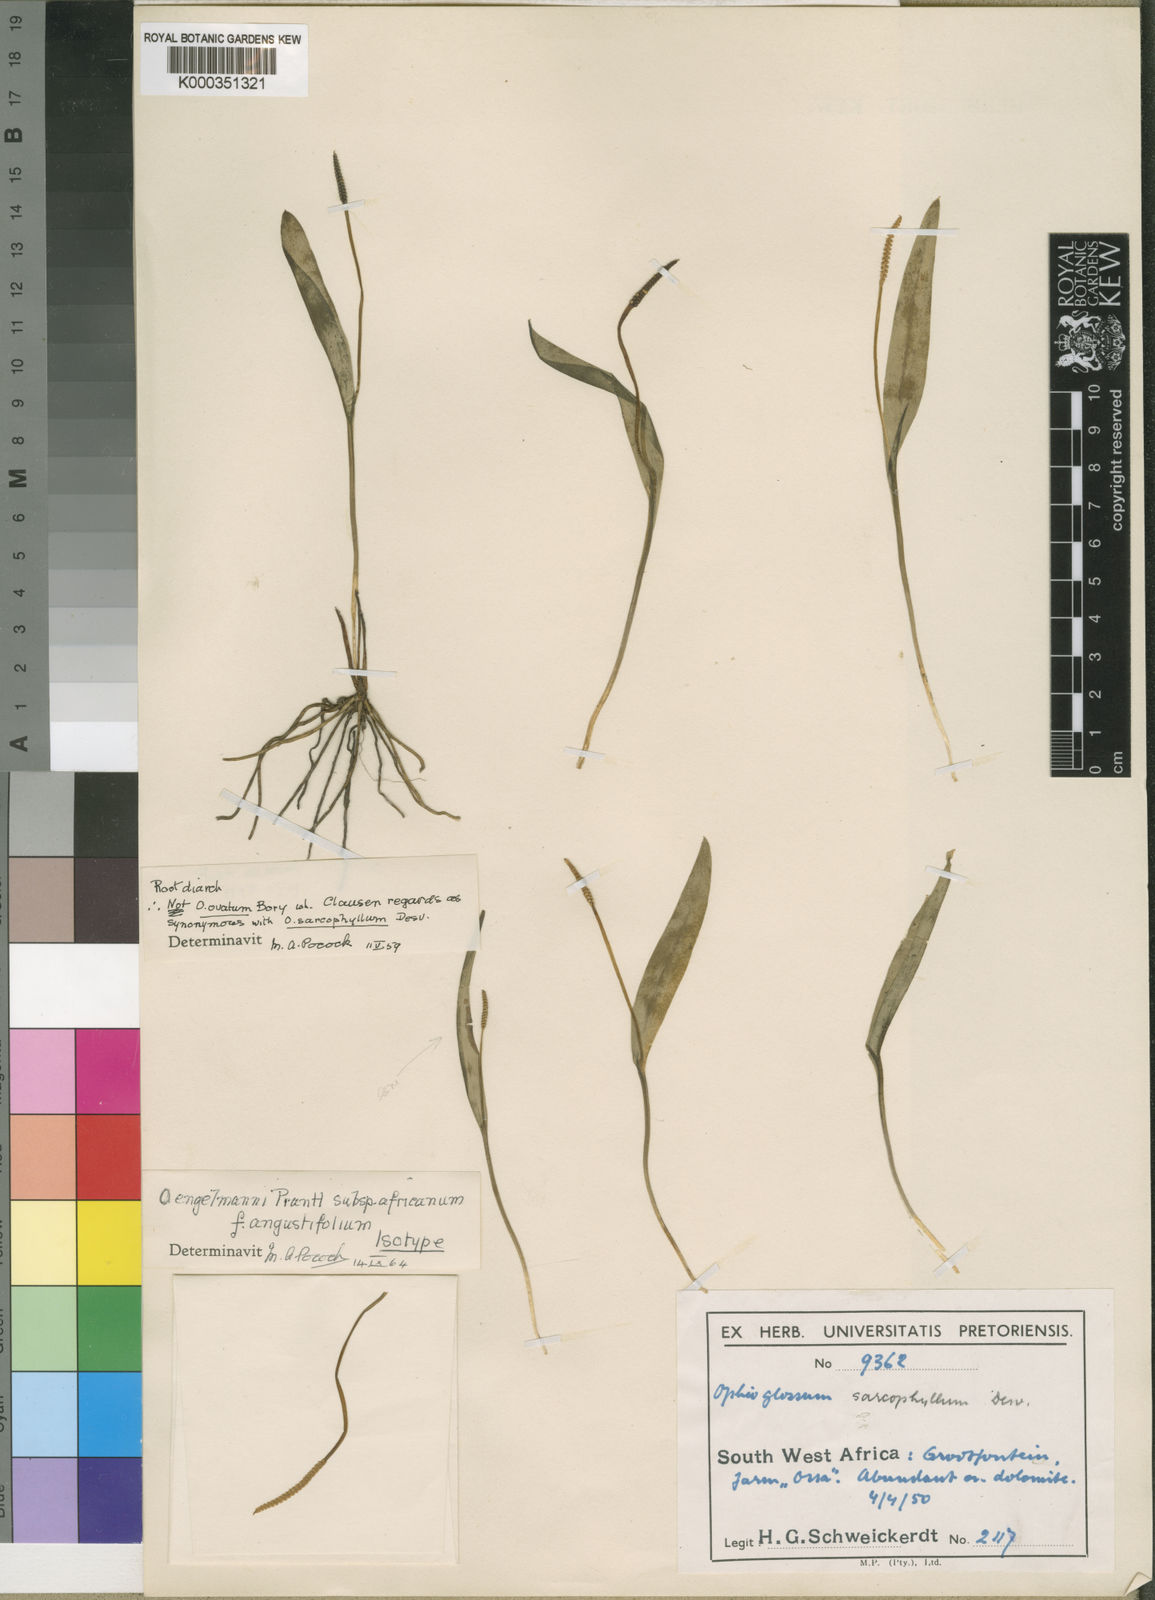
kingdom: Plantae
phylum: Tracheophyta
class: Polypodiopsida
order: Ophioglossales
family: Ophioglossaceae
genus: Ophioglossum
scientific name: Ophioglossum engelmannii
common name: Limestone adder's-tongue
